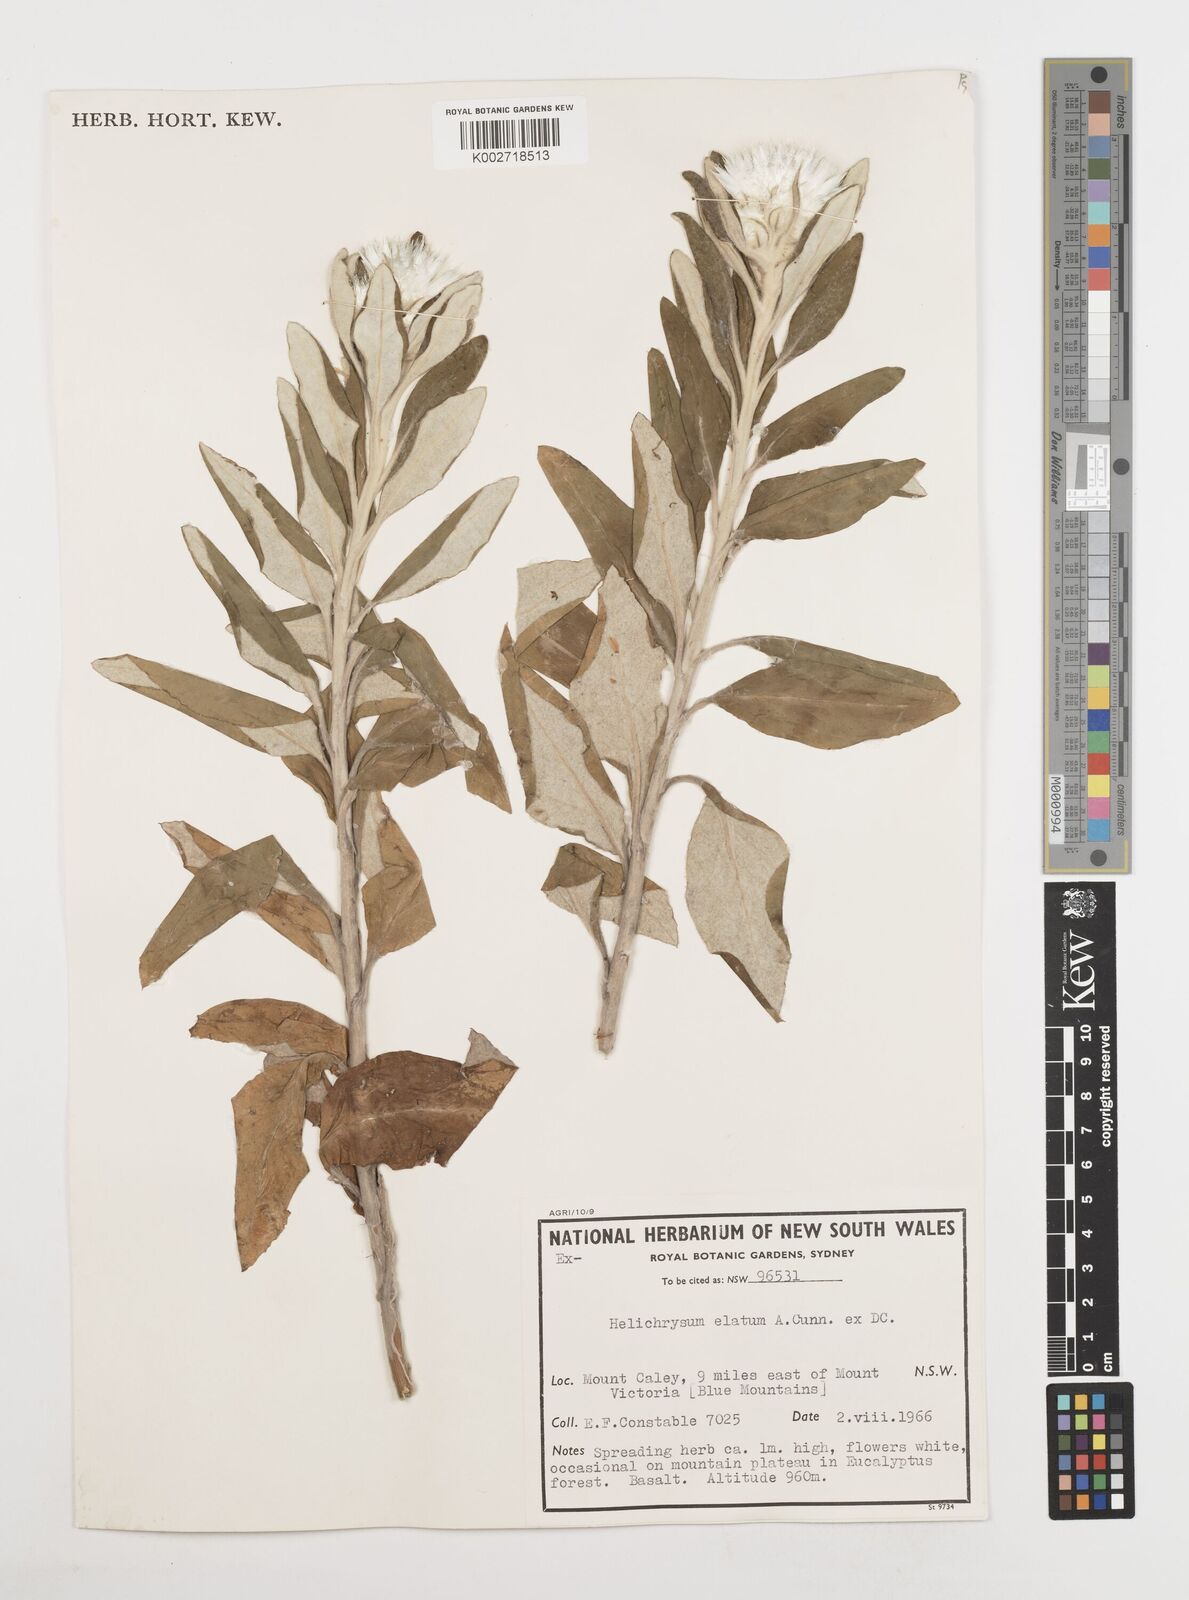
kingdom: Plantae
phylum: Tracheophyta
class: Magnoliopsida
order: Asterales
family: Asteraceae
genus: Leucozoma
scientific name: Leucozoma elatum
